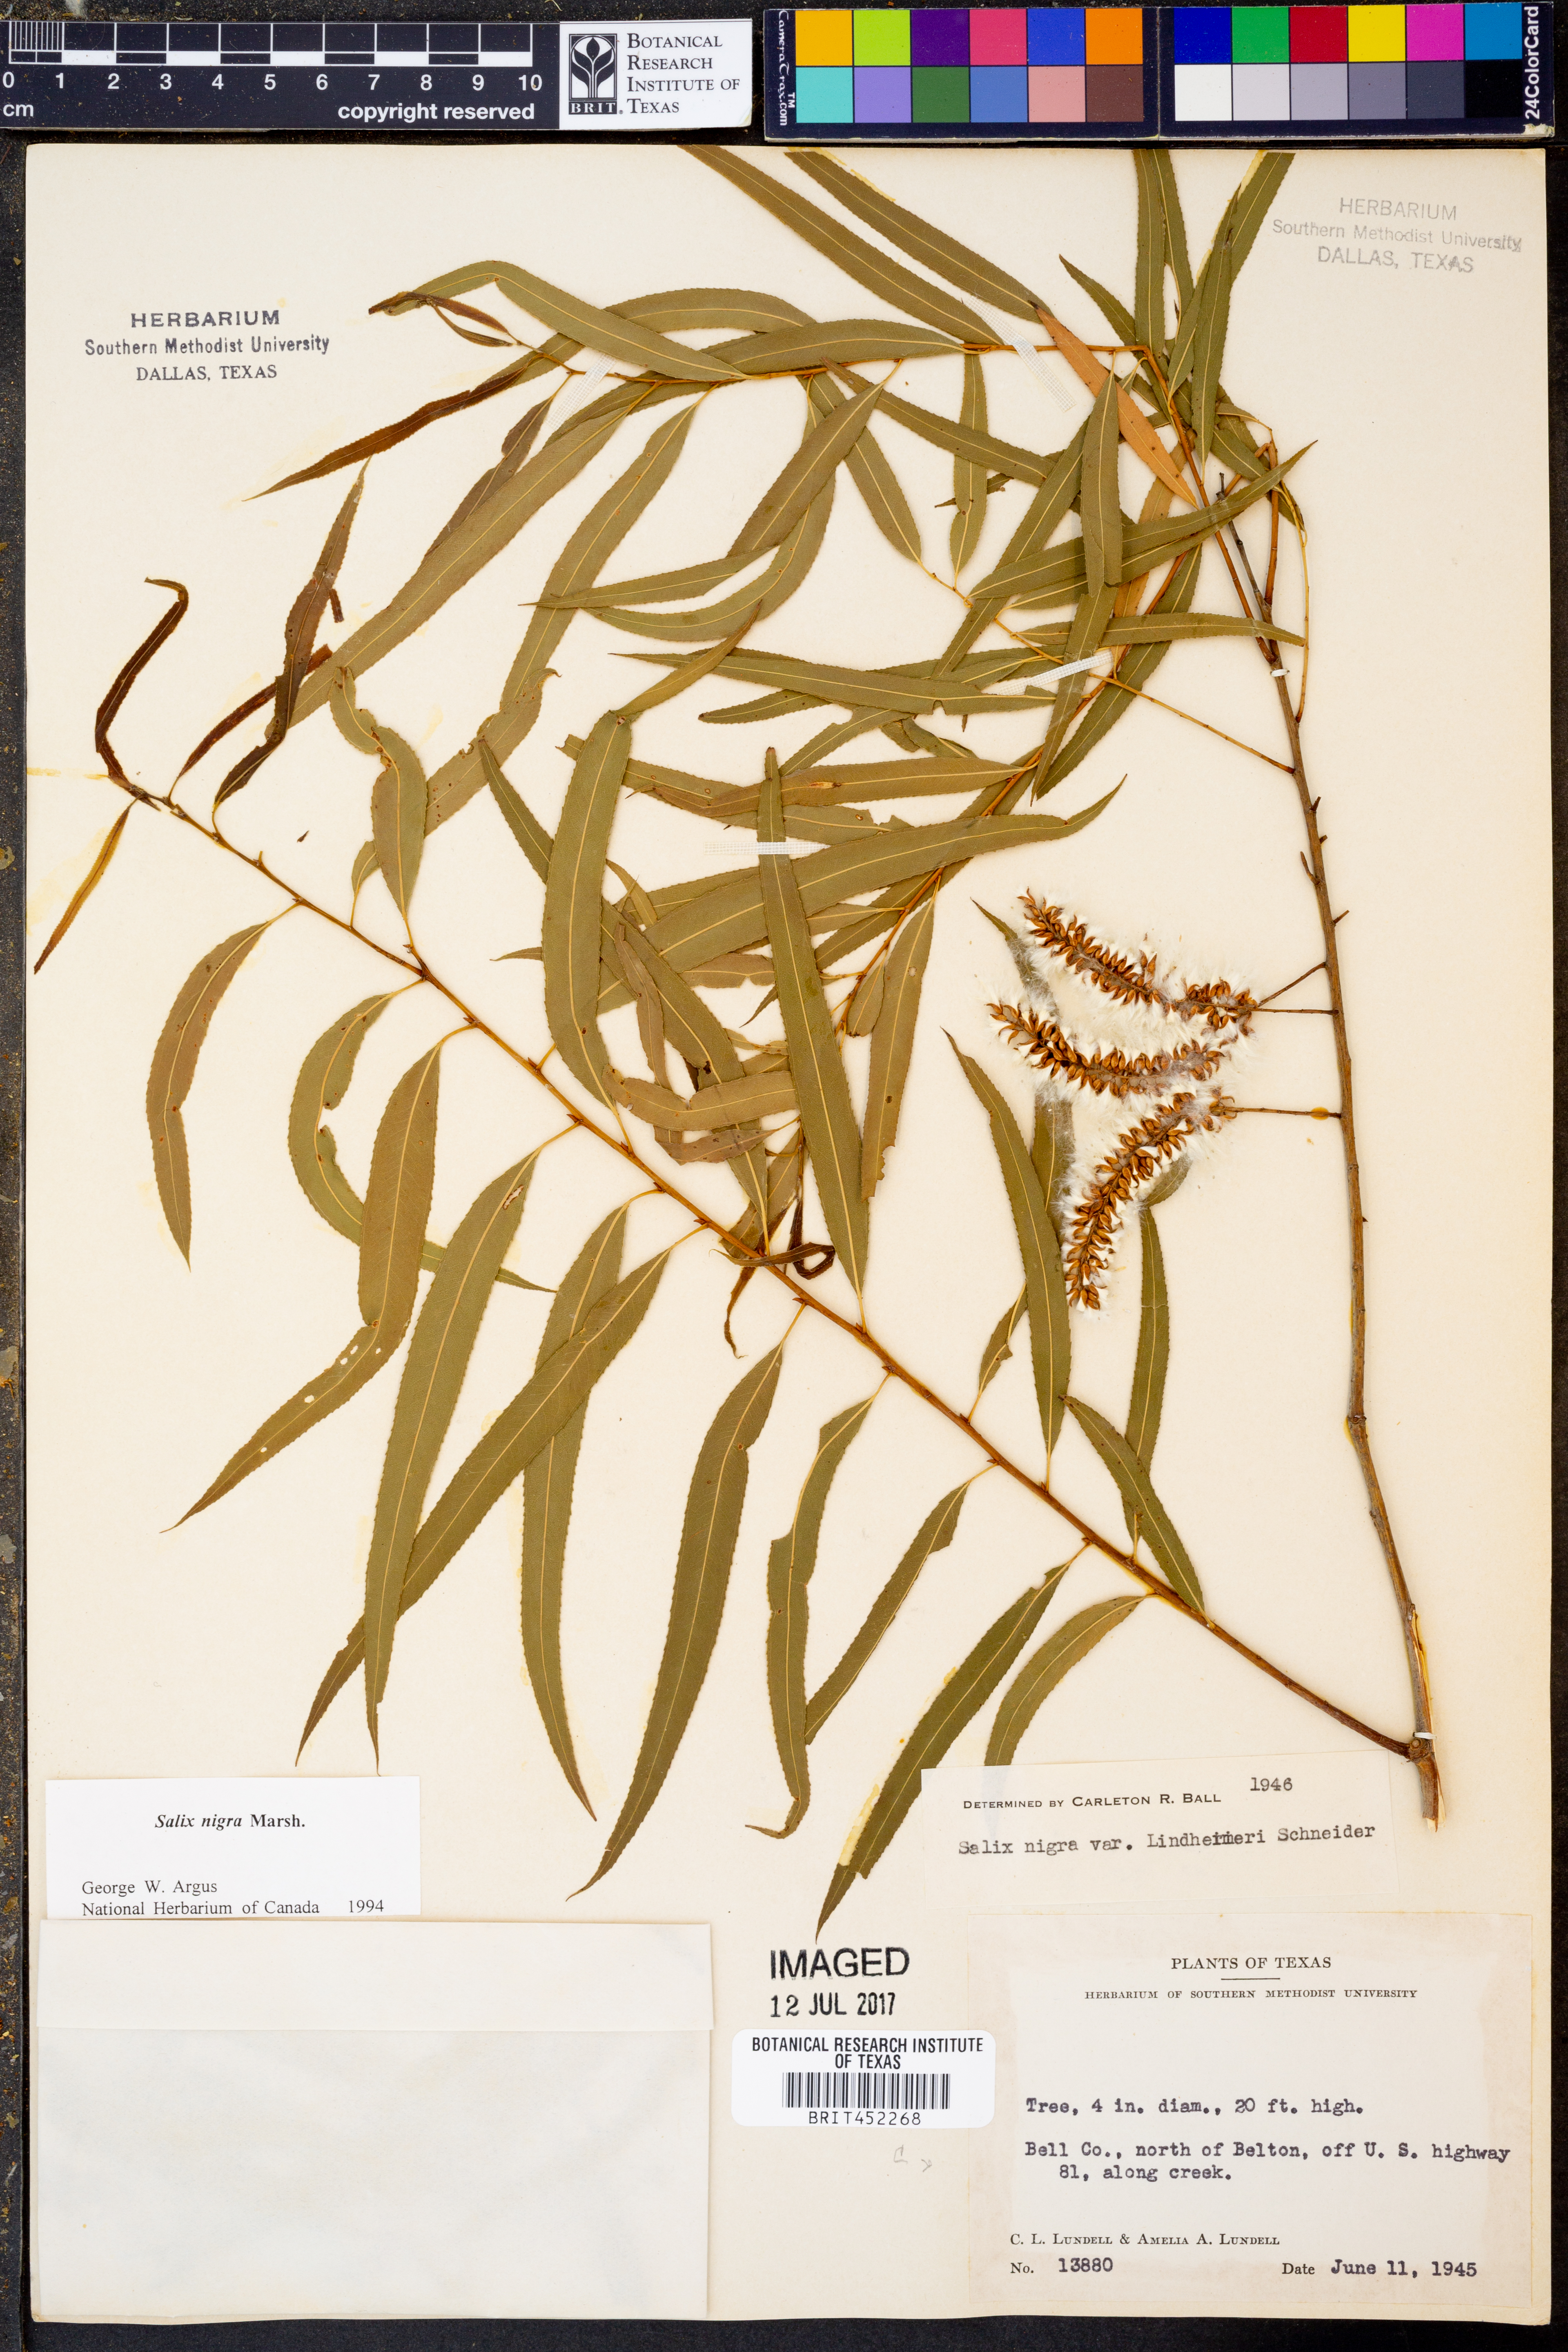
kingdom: Plantae
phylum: Tracheophyta
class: Magnoliopsida
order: Malpighiales
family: Salicaceae
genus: Salix
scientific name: Salix nigra
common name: Black willow
